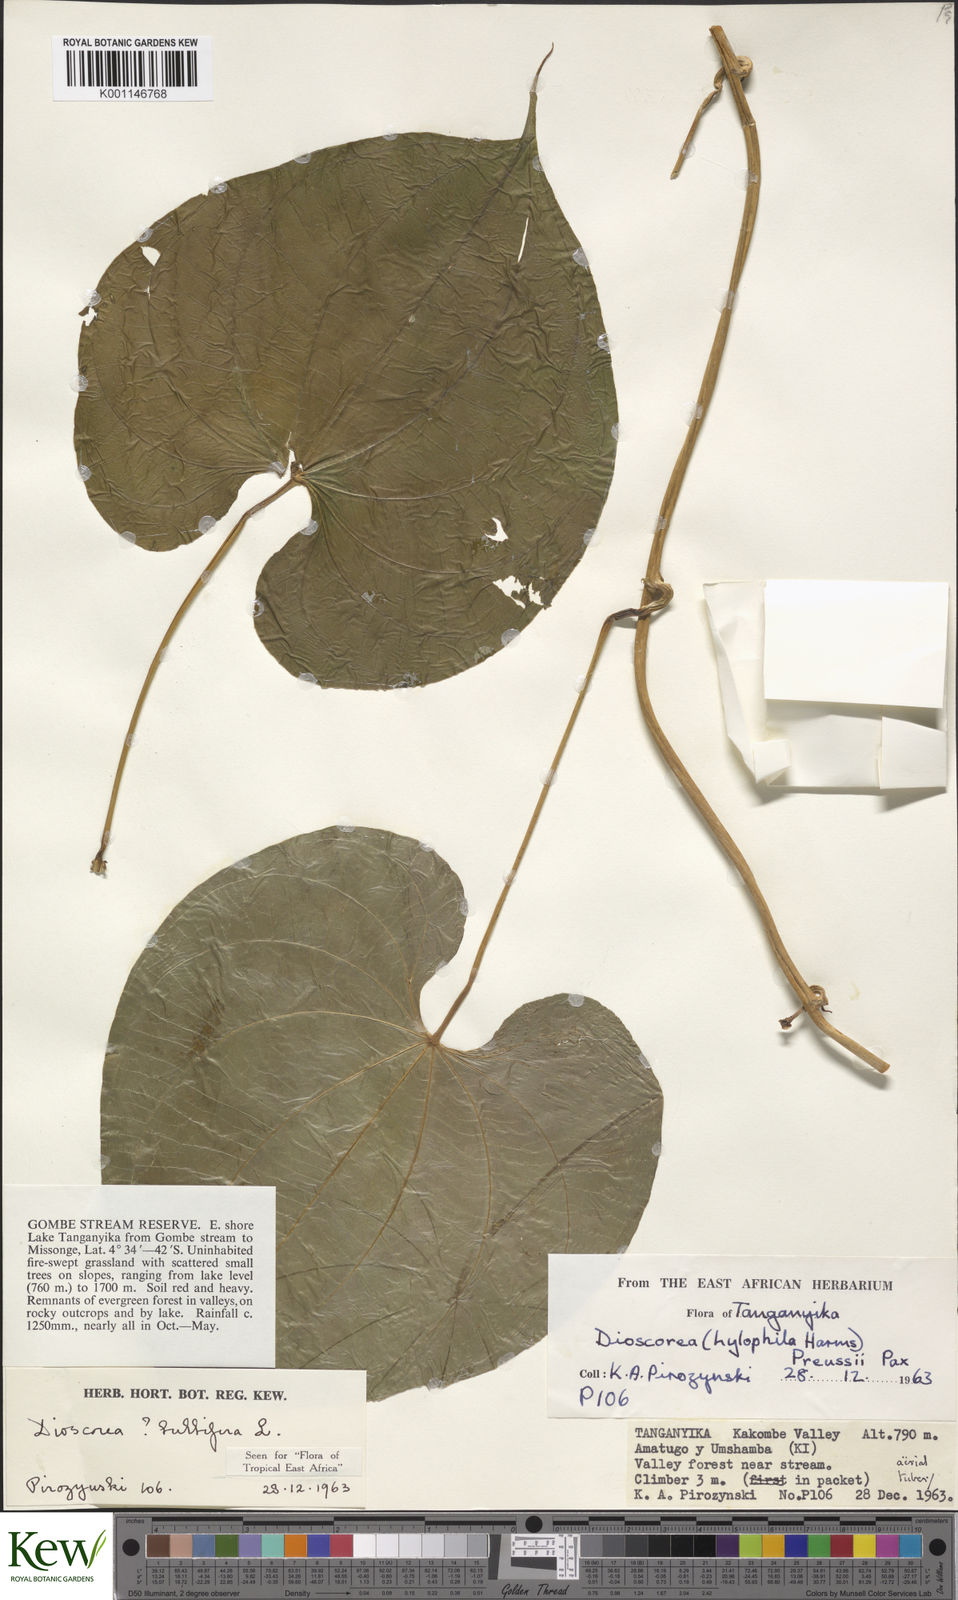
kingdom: Plantae
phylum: Tracheophyta
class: Liliopsida
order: Dioscoreales
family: Dioscoreaceae
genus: Dioscorea
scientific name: Dioscorea bulbifera
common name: Air yam
